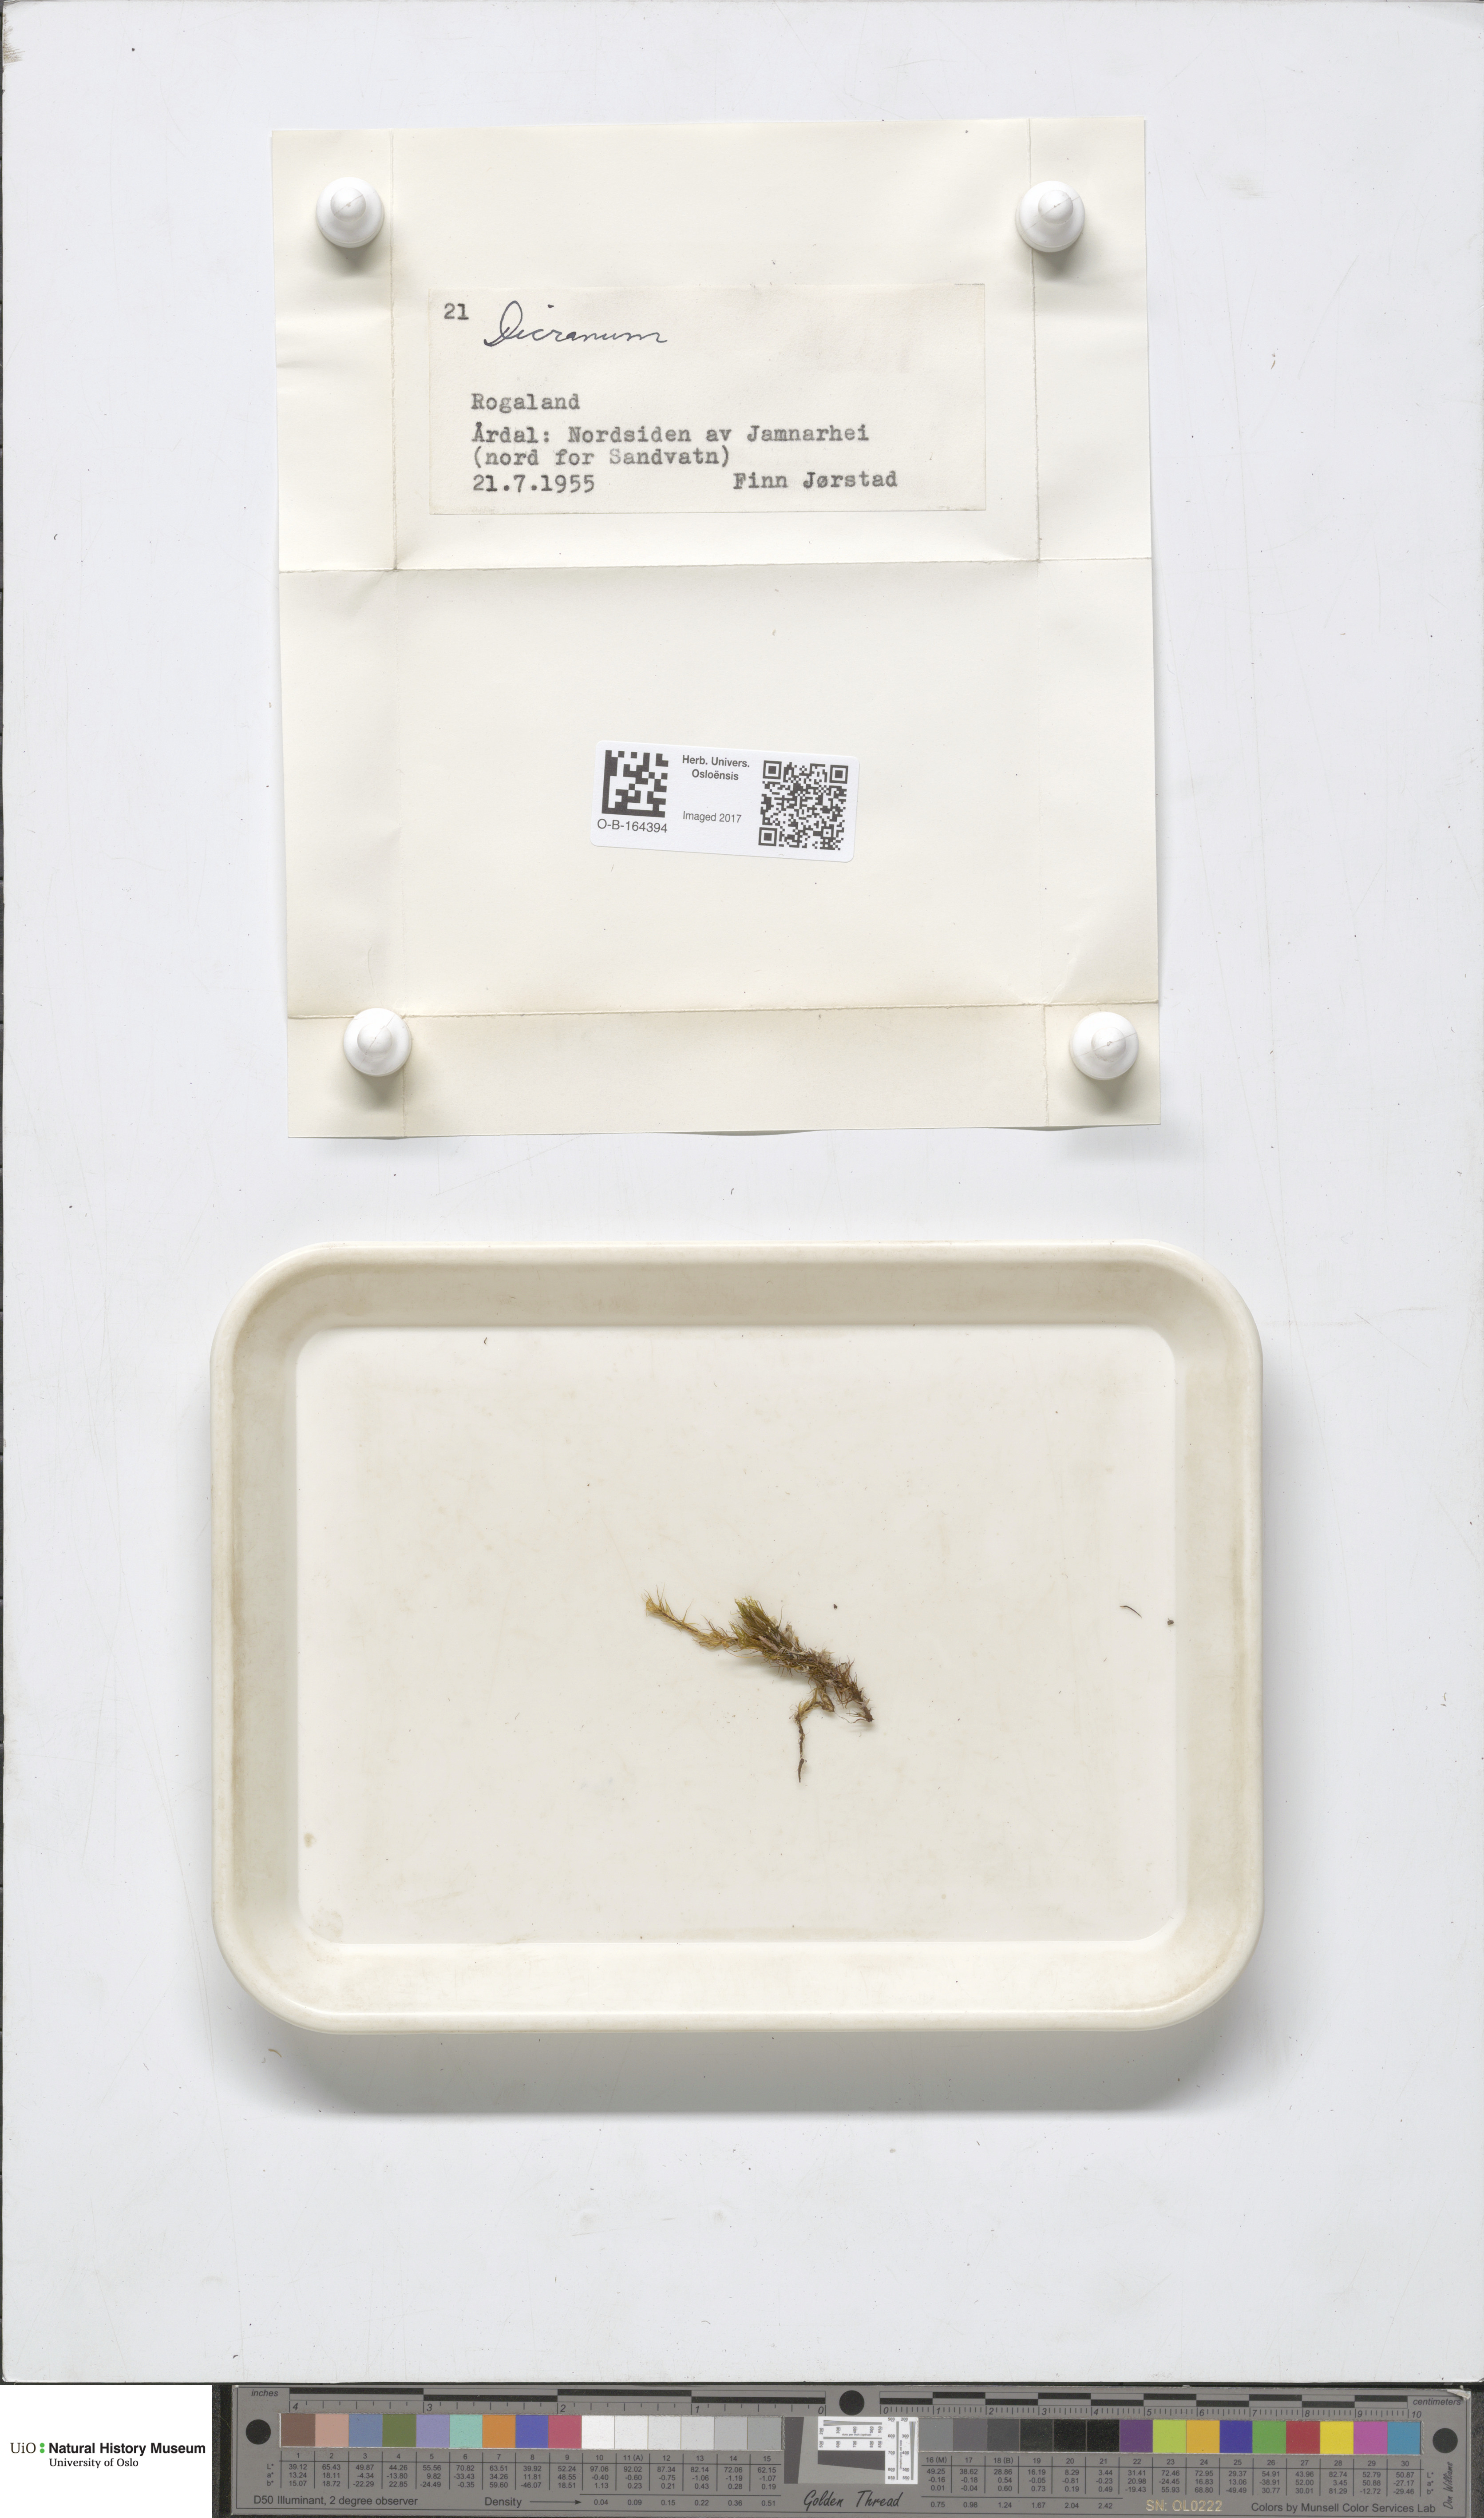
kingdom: Plantae
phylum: Bryophyta
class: Bryopsida
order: Dicranales
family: Dicranaceae
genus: Dicranum
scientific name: Dicranum
